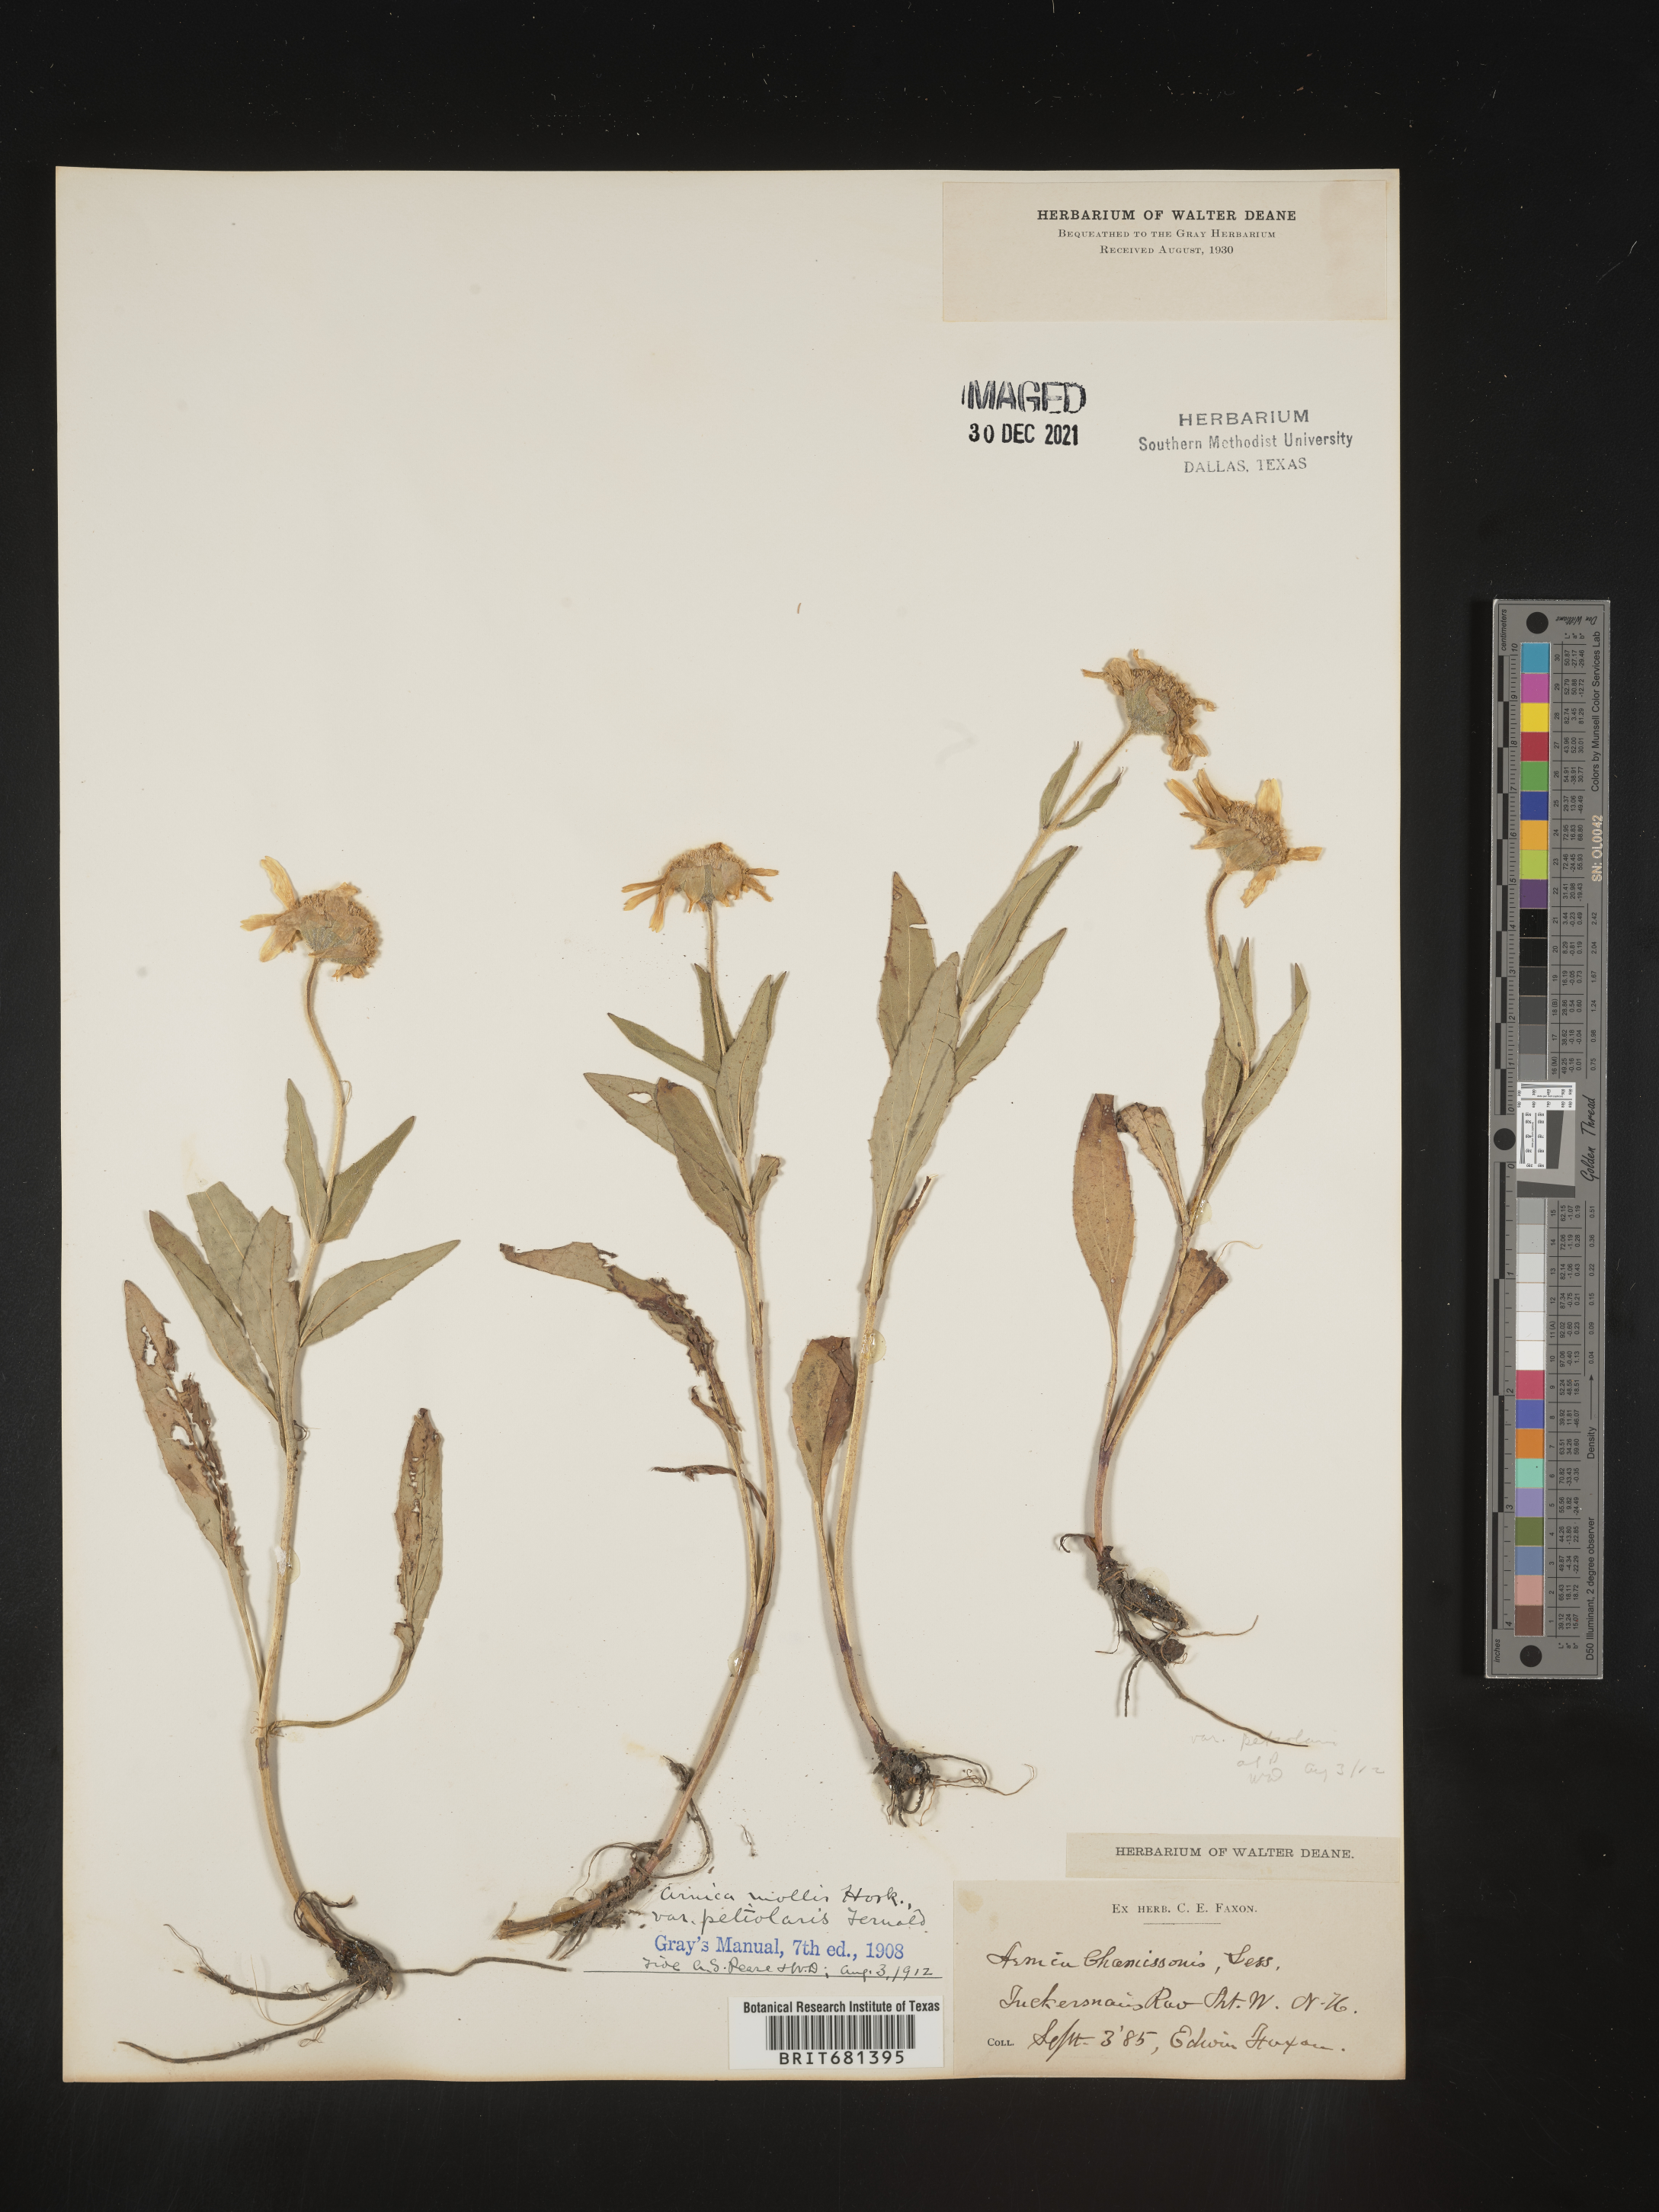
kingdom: Plantae
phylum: Tracheophyta
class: Magnoliopsida
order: Asterales
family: Asteraceae
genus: Arnica
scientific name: Arnica mollis
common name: Hairy arnica
